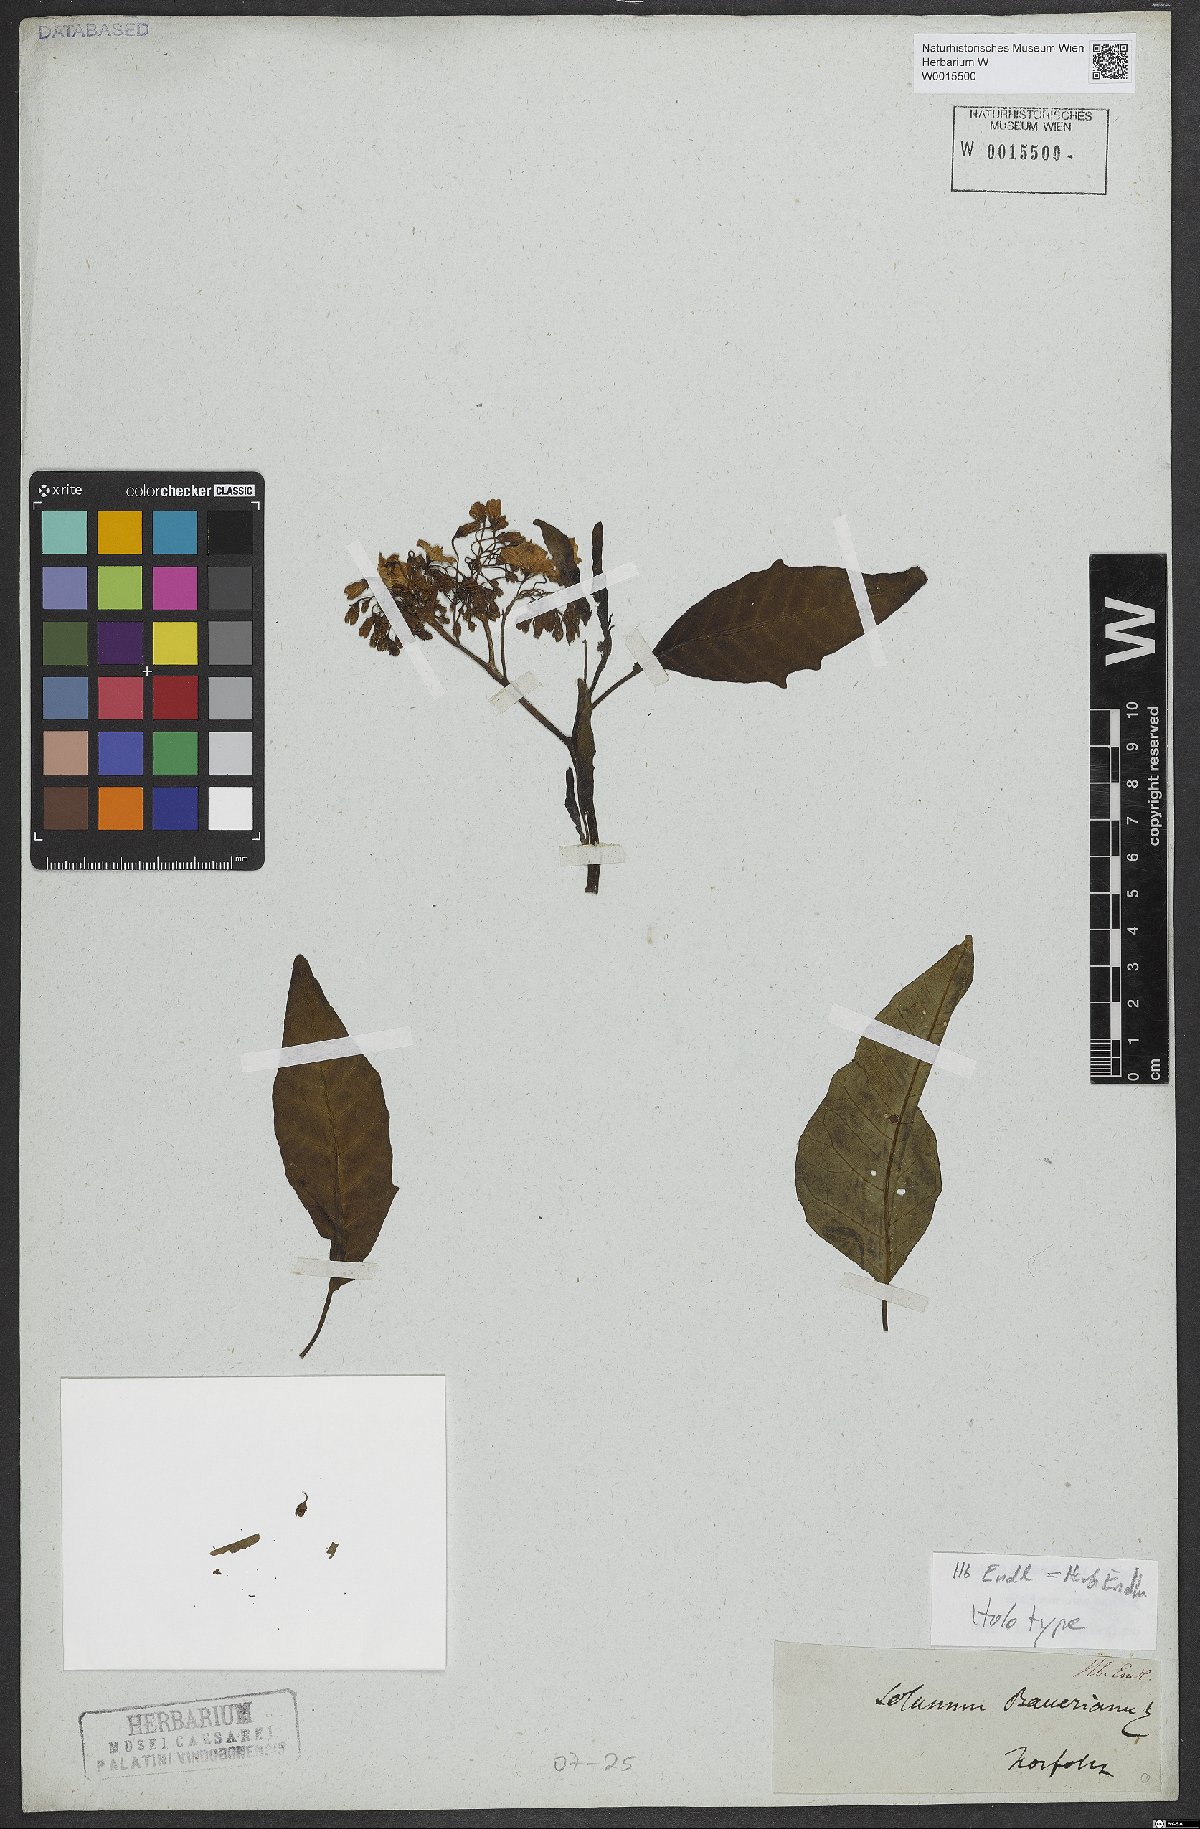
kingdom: Plantae
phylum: Tracheophyta
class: Magnoliopsida
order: Solanales
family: Solanaceae
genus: Solanum
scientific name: Solanum bauerianum
